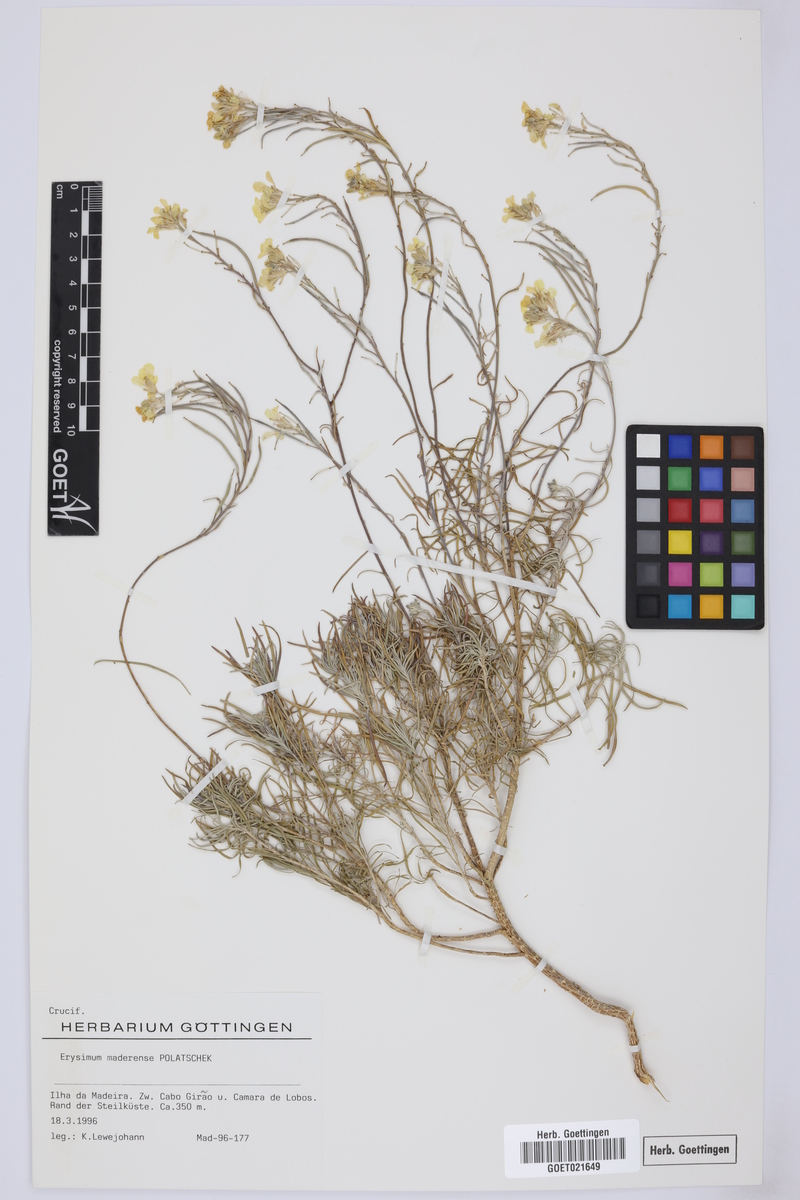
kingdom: Plantae
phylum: Tracheophyta
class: Magnoliopsida
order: Brassicales
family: Brassicaceae
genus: Erysimum
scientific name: Erysimum maderense
